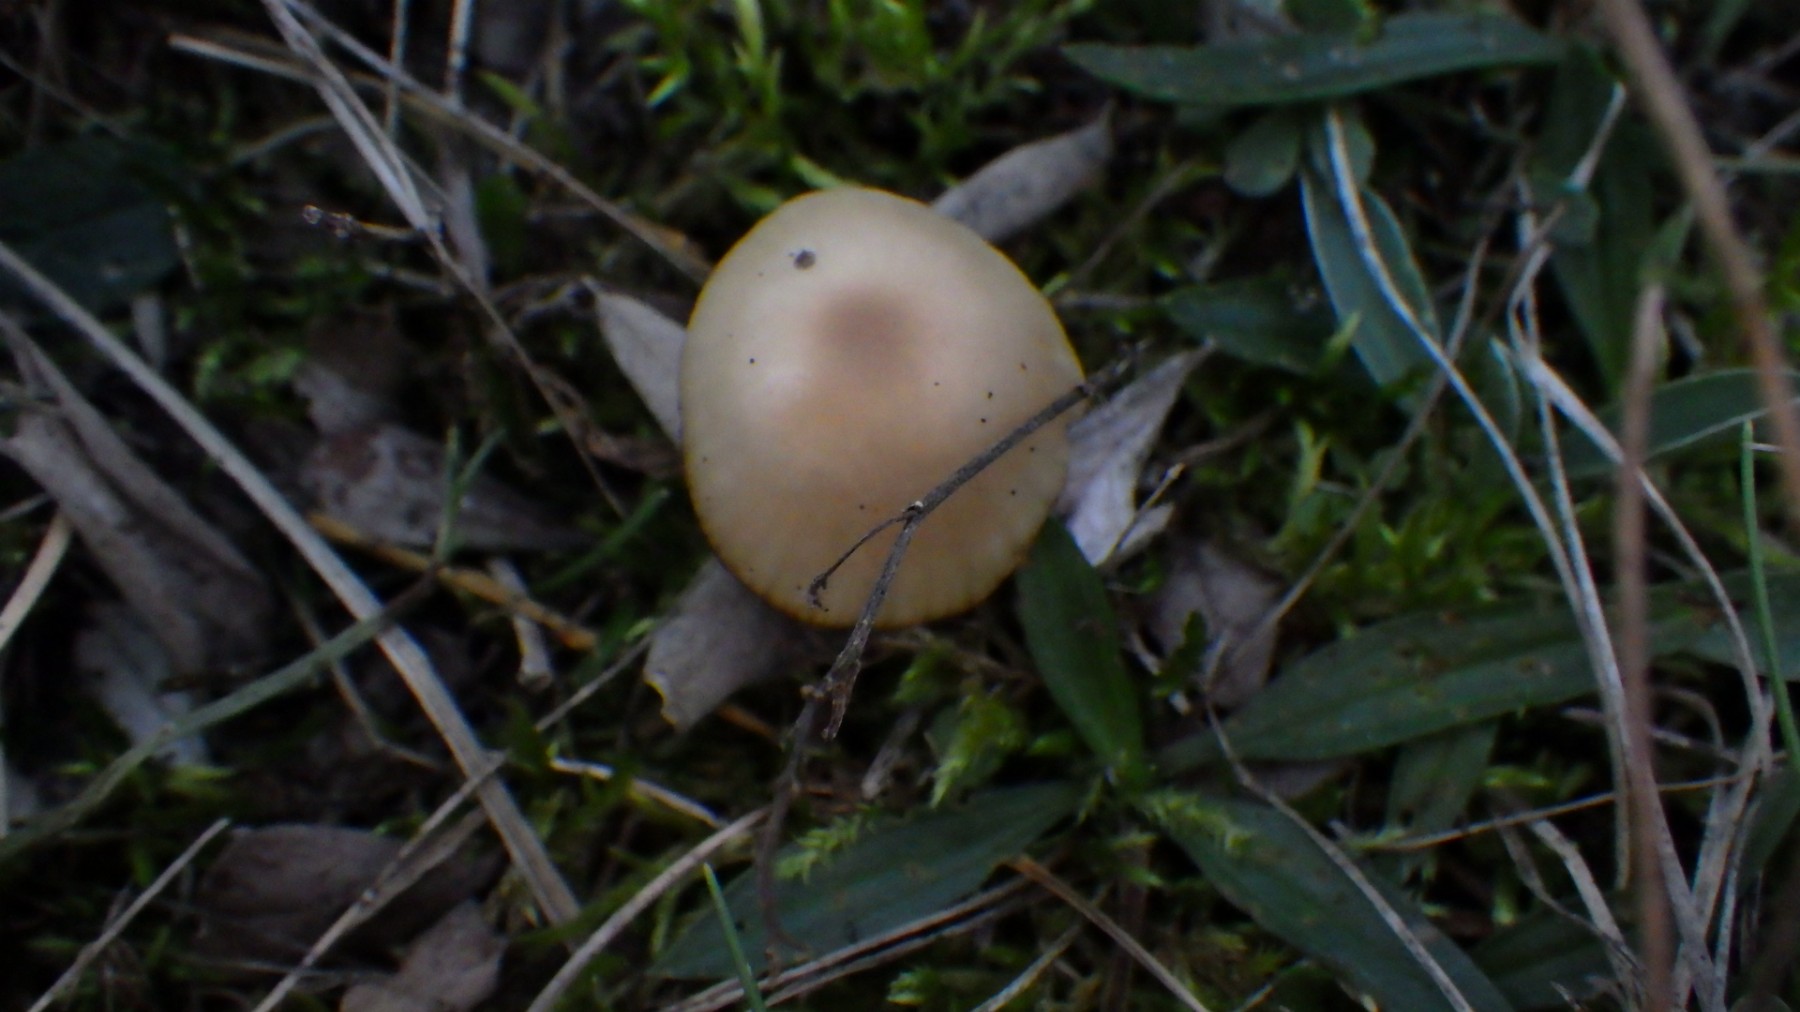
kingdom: Fungi
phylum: Basidiomycota
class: Agaricomycetes
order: Agaricales
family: Hygrophoraceae
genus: Cuphophyllus
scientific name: Cuphophyllus
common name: vokshat
